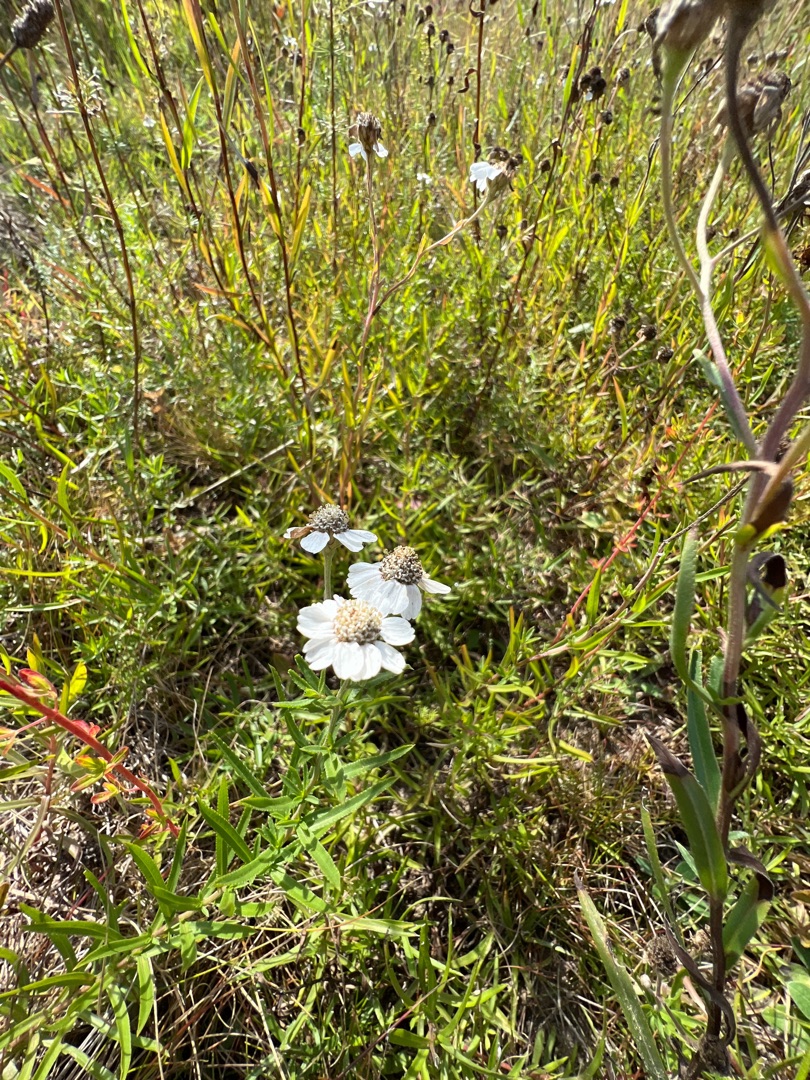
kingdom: Plantae
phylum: Tracheophyta
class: Magnoliopsida
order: Asterales
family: Asteraceae
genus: Achillea
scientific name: Achillea ptarmica
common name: Nyse-røllike
